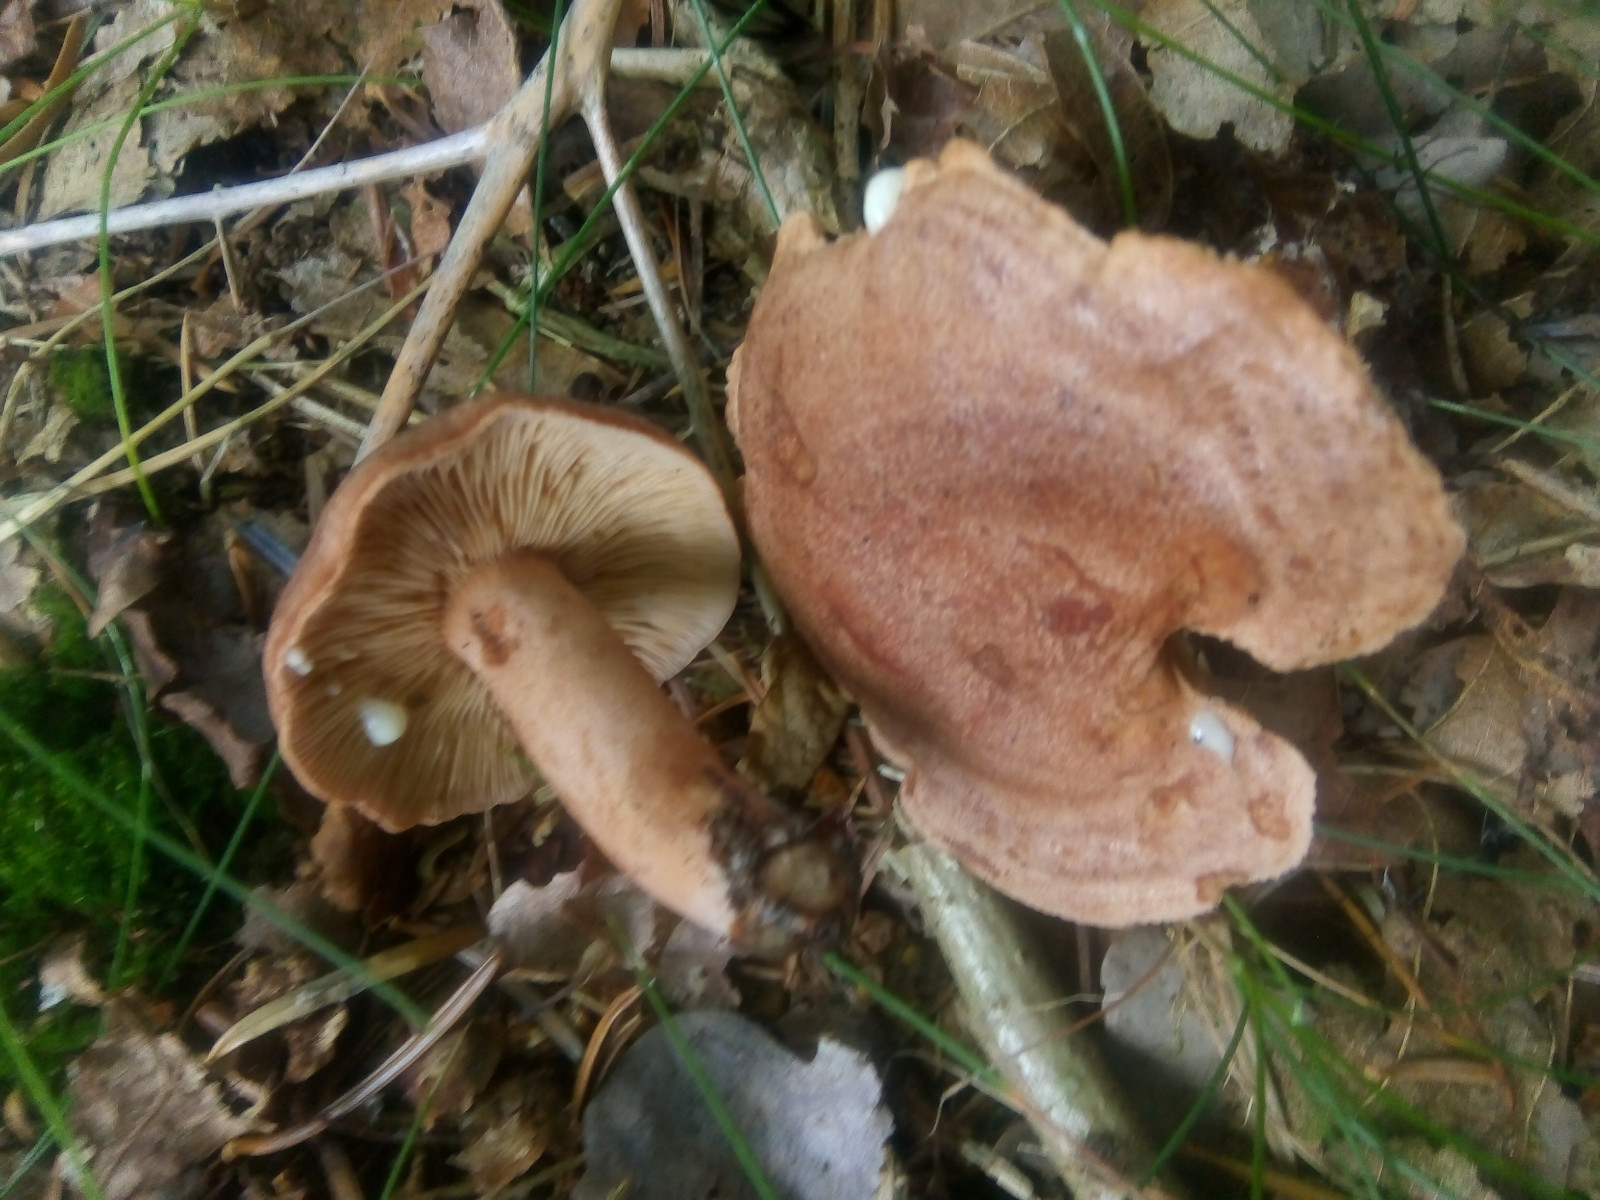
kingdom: Fungi
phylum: Basidiomycota
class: Agaricomycetes
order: Russulales
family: Russulaceae
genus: Lactarius
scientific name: Lactarius quietus
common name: ege-mælkehat
